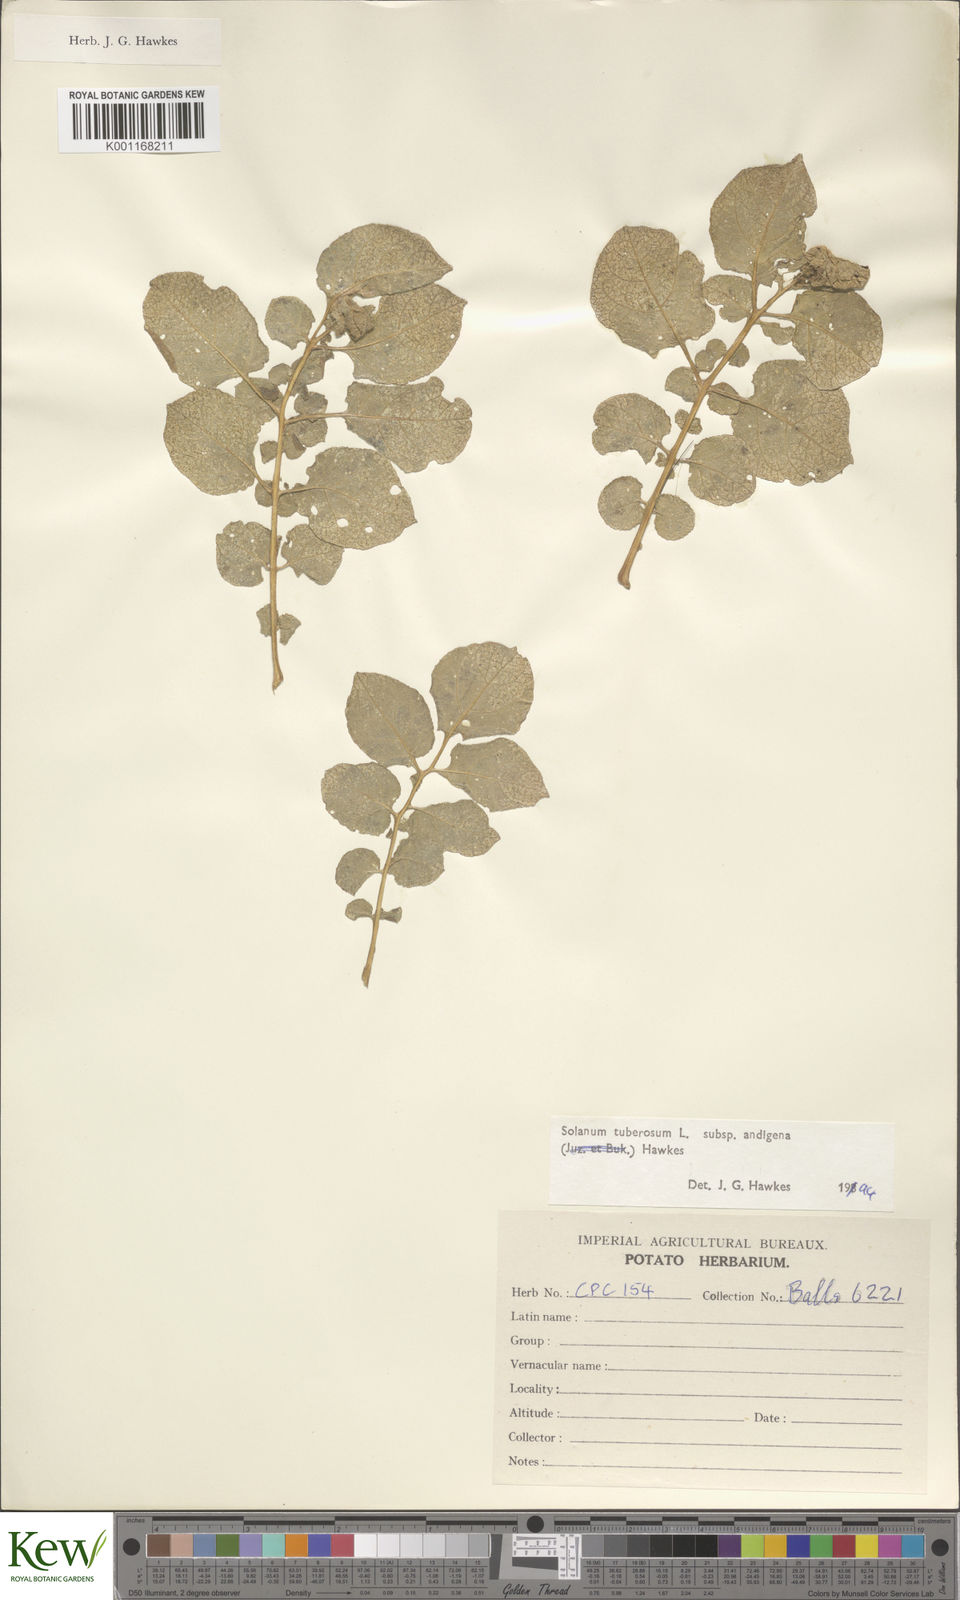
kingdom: Plantae
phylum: Tracheophyta
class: Magnoliopsida
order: Solanales
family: Solanaceae
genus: Solanum
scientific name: Solanum tuberosum
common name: Potato
